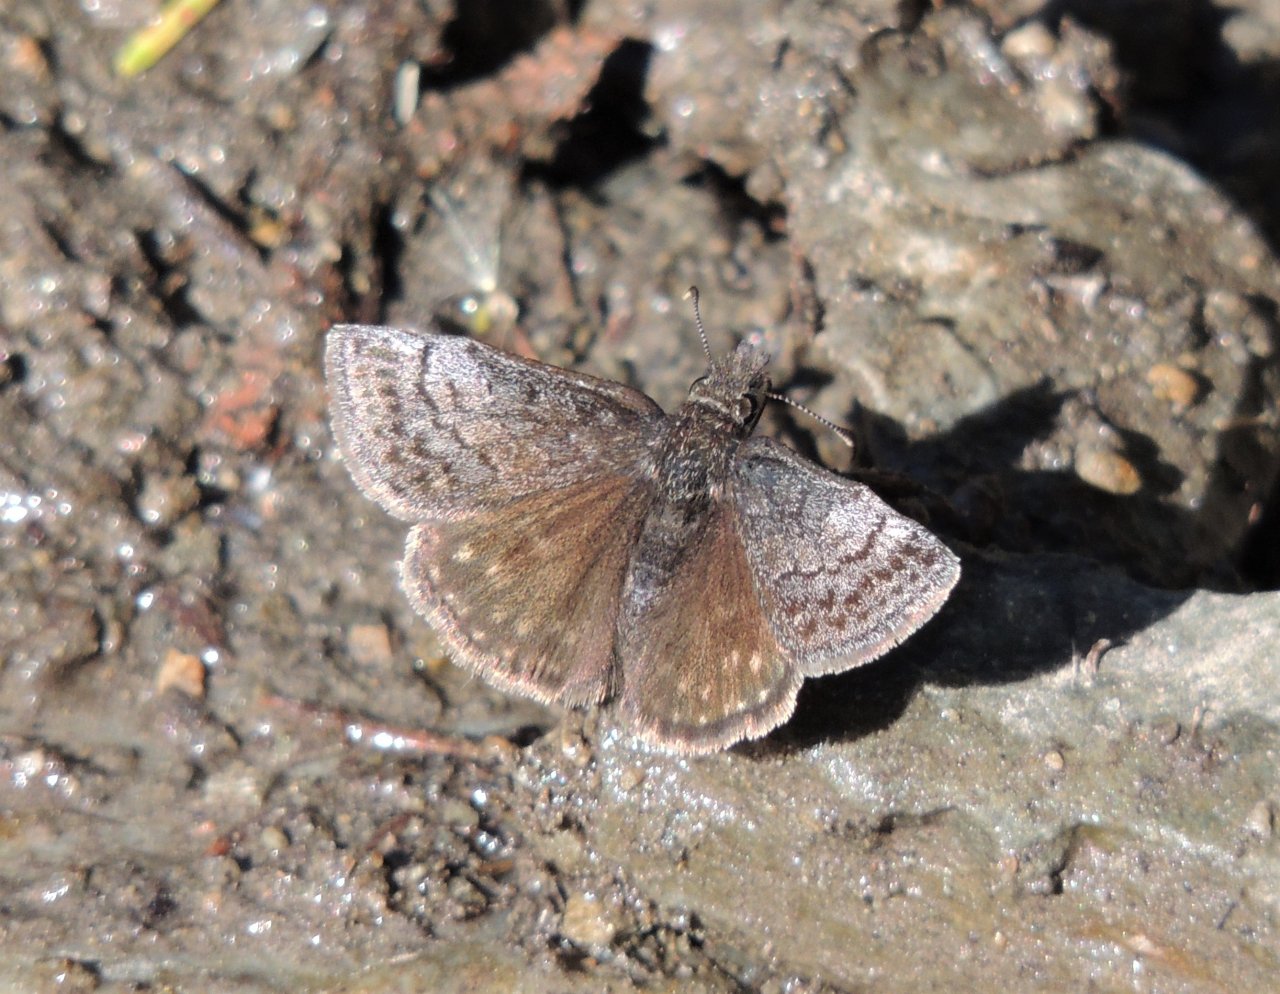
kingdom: Animalia
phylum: Arthropoda
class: Insecta
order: Lepidoptera
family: Hesperiidae
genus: Erynnis
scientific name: Erynnis icelus
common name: Dreamy Duskywing
